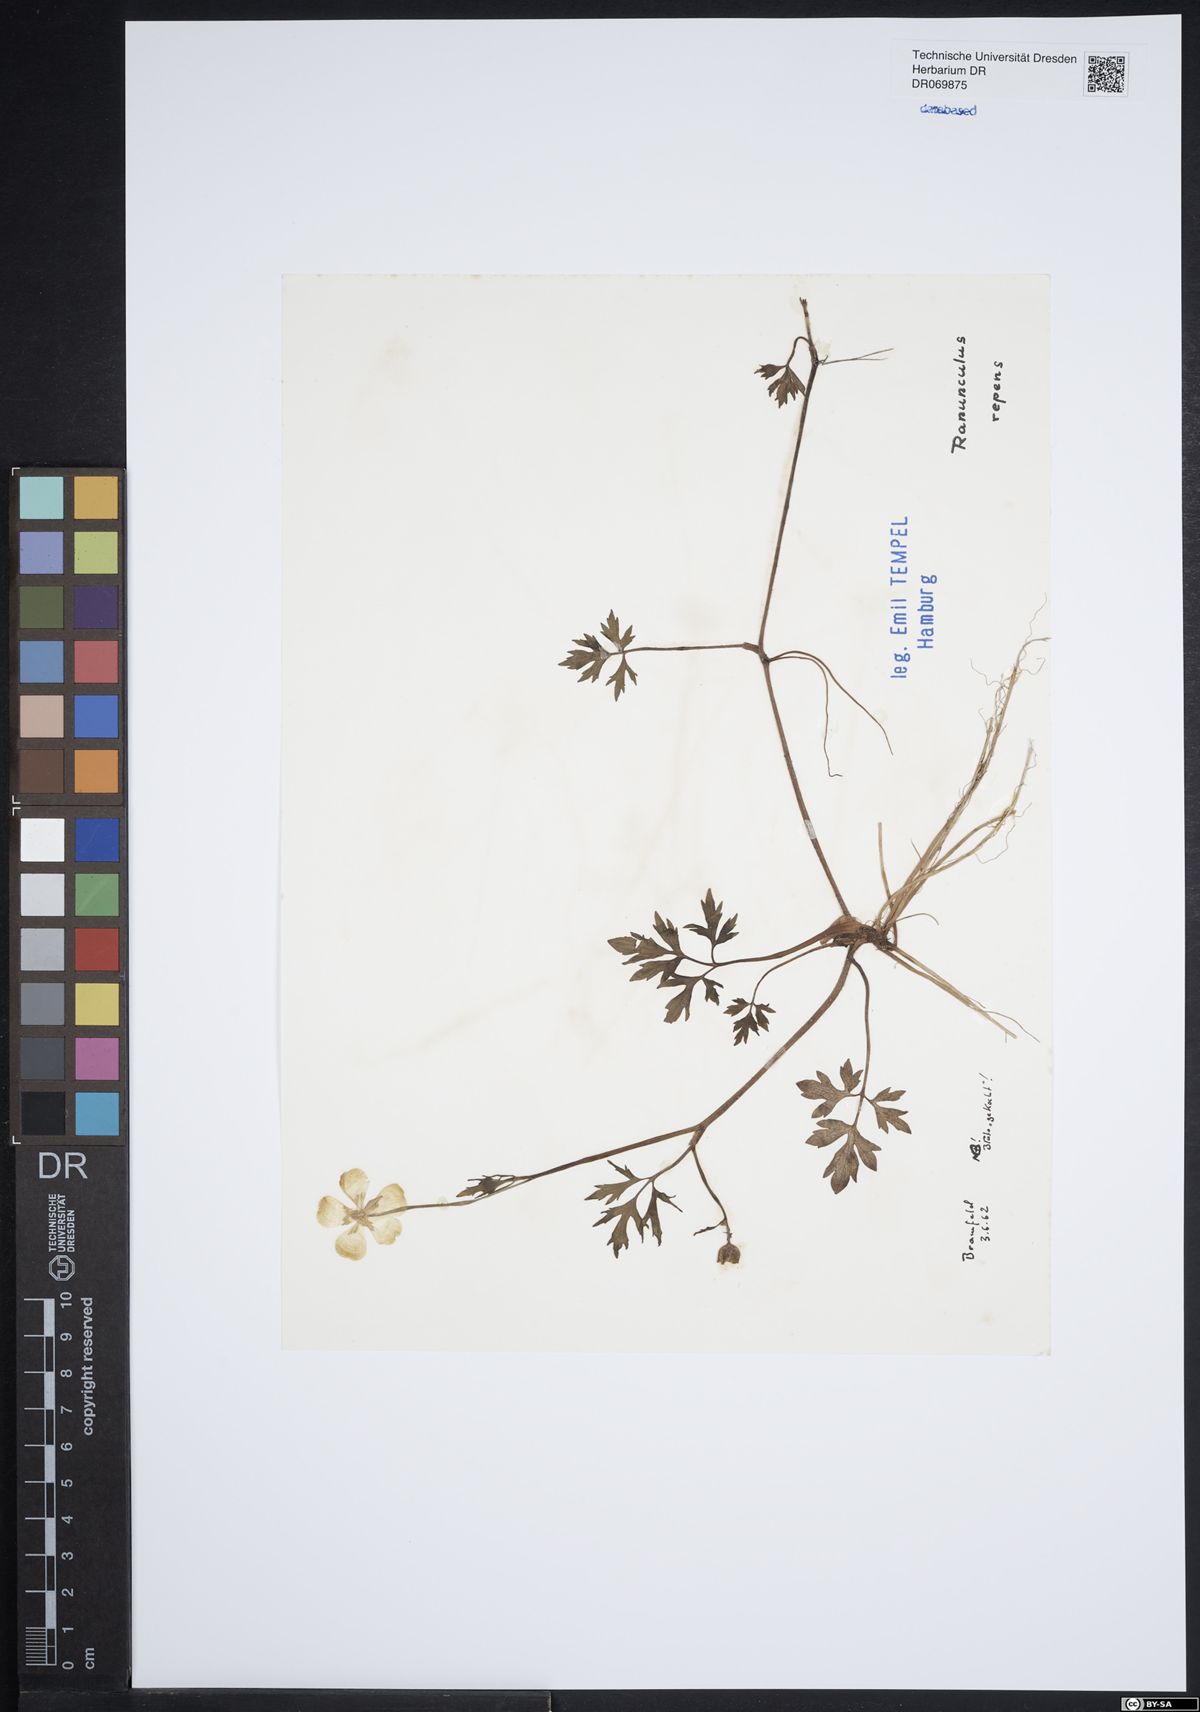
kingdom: Plantae
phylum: Tracheophyta
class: Magnoliopsida
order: Ranunculales
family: Ranunculaceae
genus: Ranunculus
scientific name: Ranunculus repens
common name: Creeping buttercup
